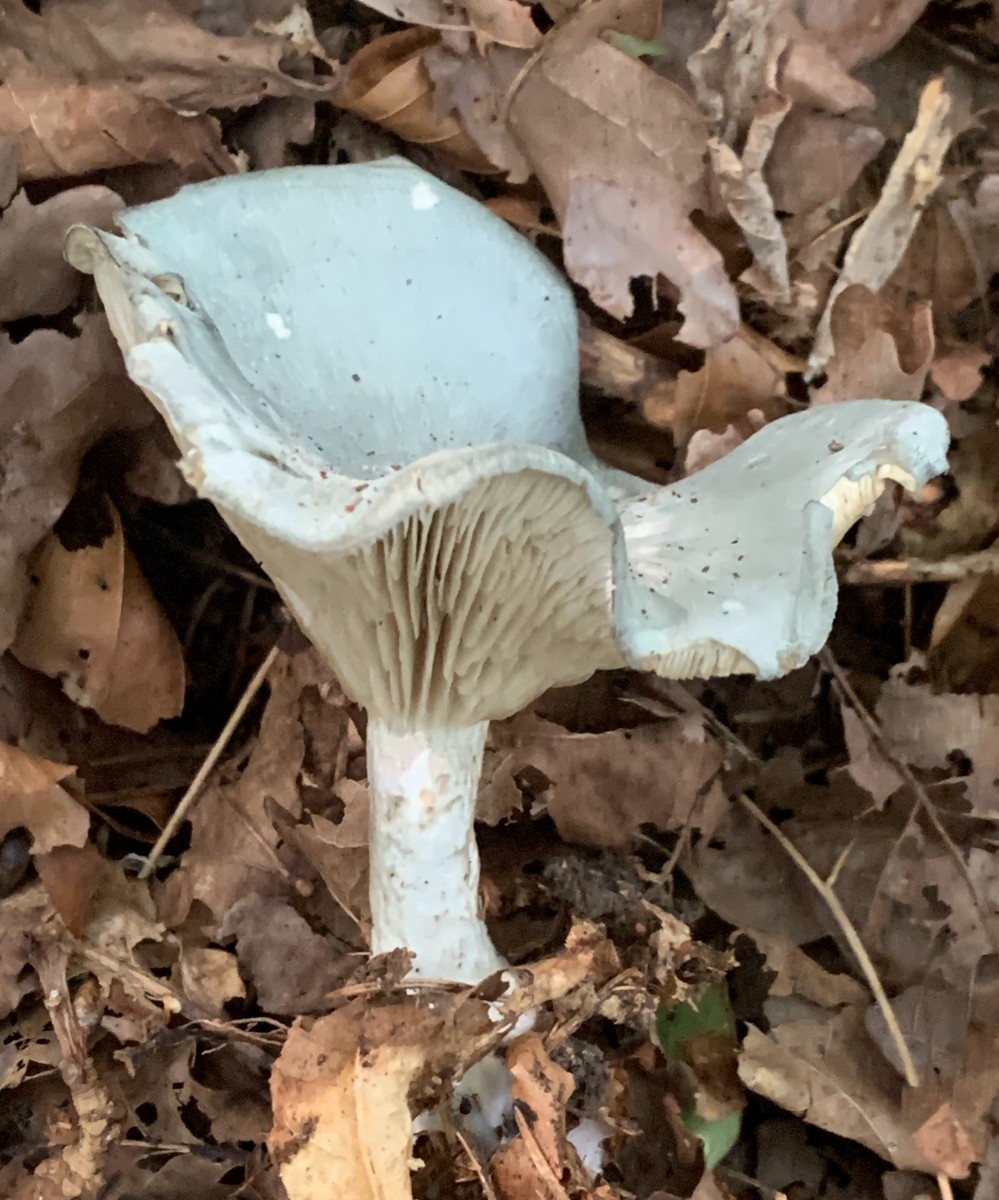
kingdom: Fungi
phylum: Basidiomycota
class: Agaricomycetes
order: Agaricales
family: Tricholomataceae
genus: Clitocybe
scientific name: Clitocybe odora
